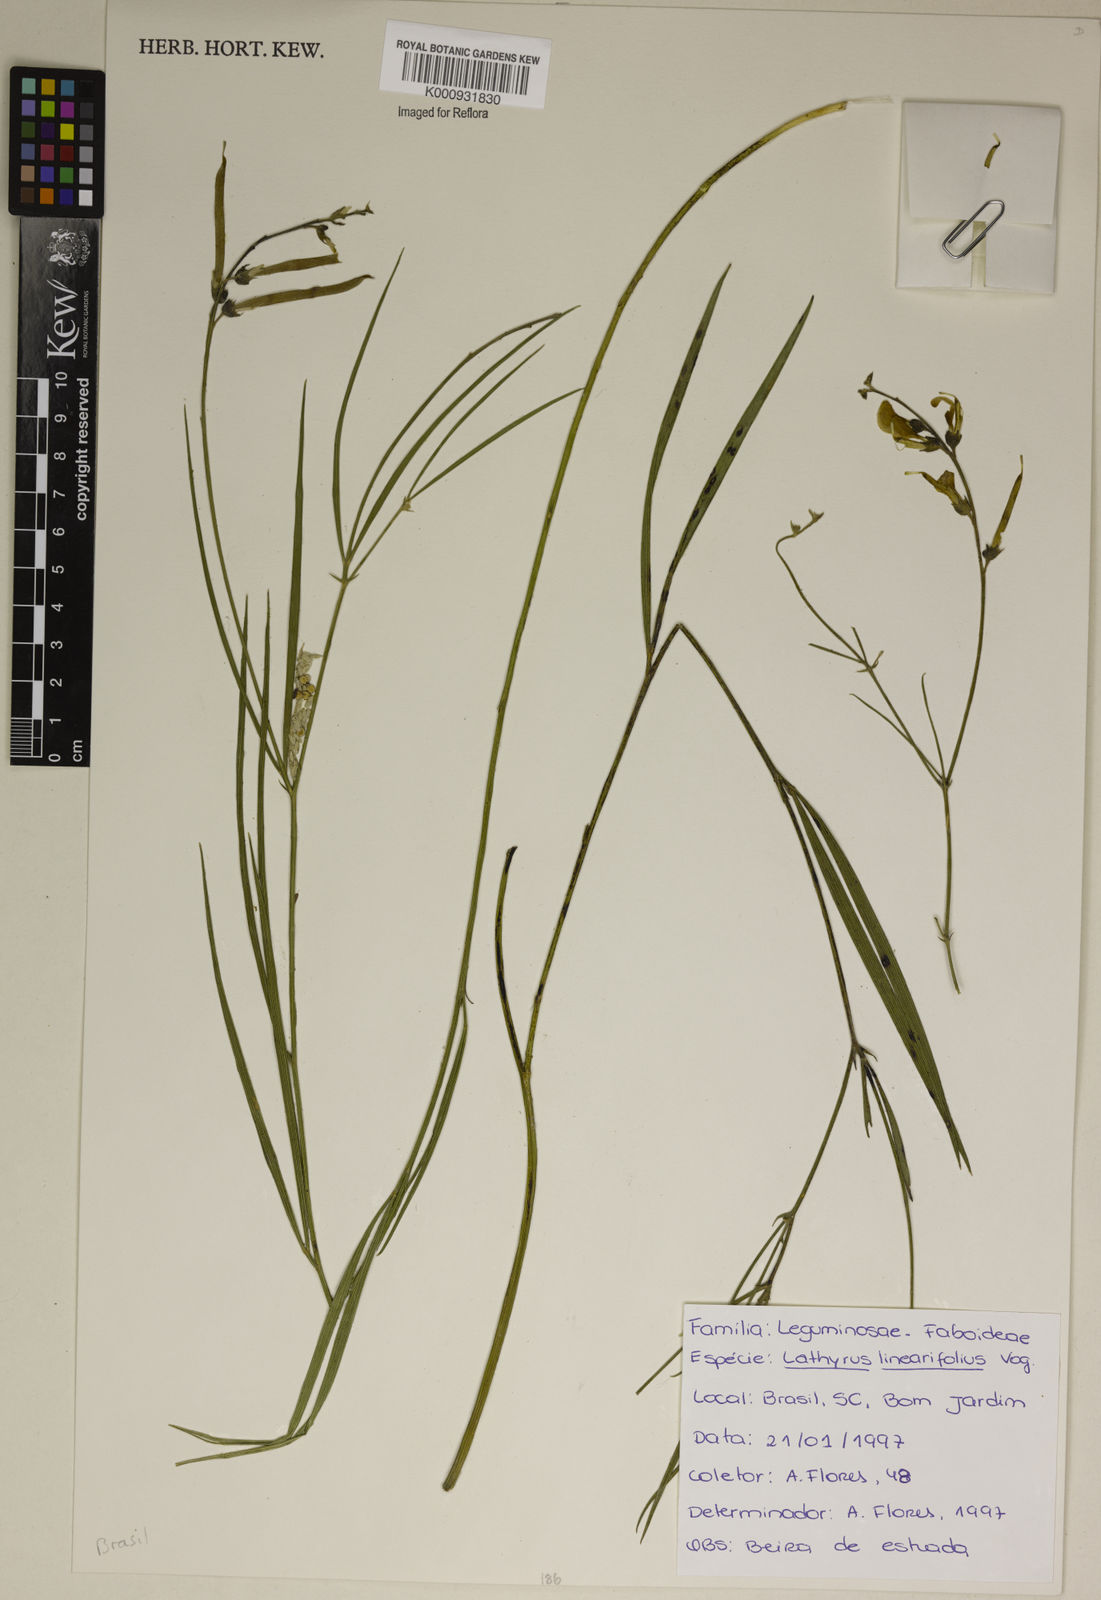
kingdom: Plantae
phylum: Tracheophyta
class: Magnoliopsida
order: Fabales
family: Fabaceae
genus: Lathyrus
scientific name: Lathyrus linearifolius
